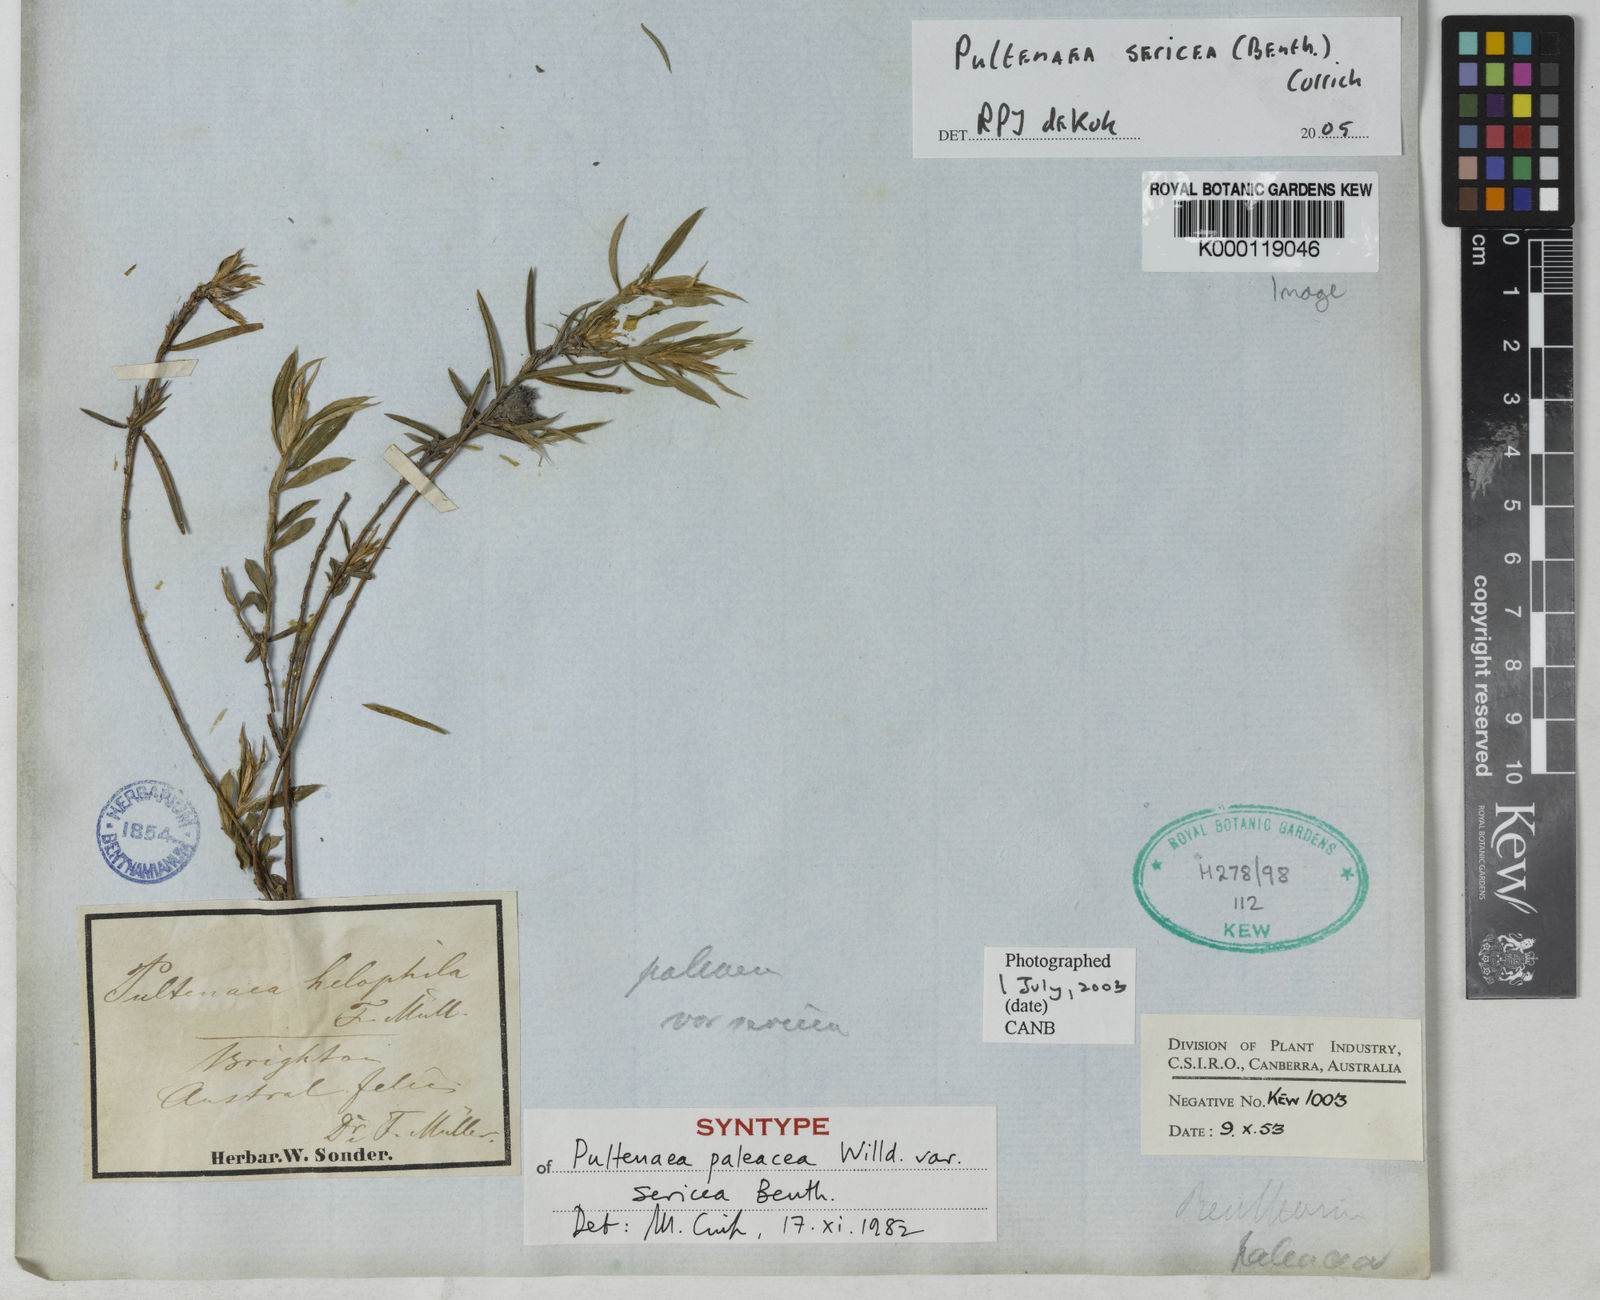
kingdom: Plantae
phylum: Tracheophyta
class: Magnoliopsida
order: Fabales
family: Fabaceae
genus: Pultenaea
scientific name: Pultenaea juniperina
